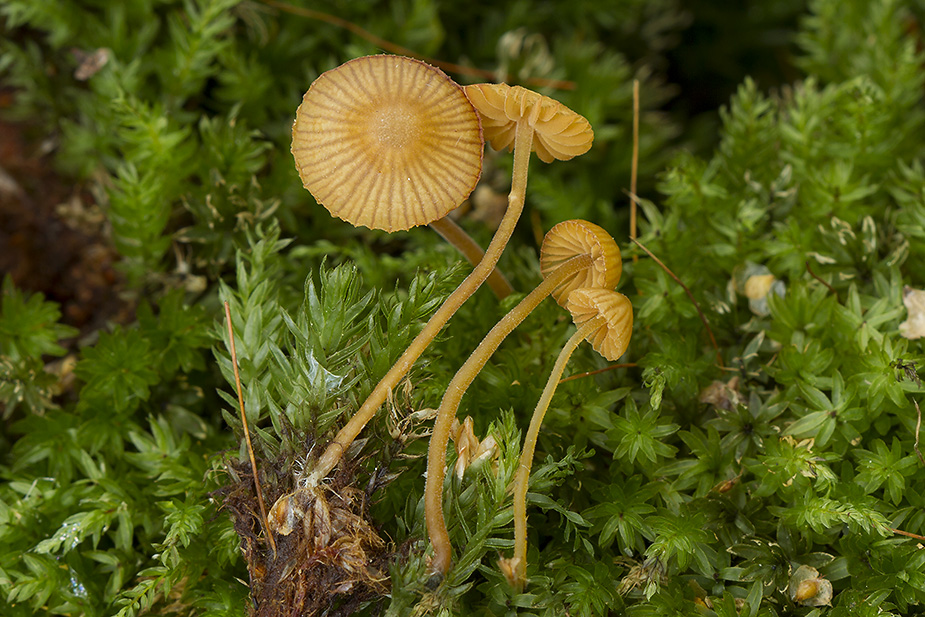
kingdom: Fungi
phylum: Basidiomycota
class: Agaricomycetes
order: Agaricales
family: Hymenogastraceae
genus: Galerina
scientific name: Galerina
